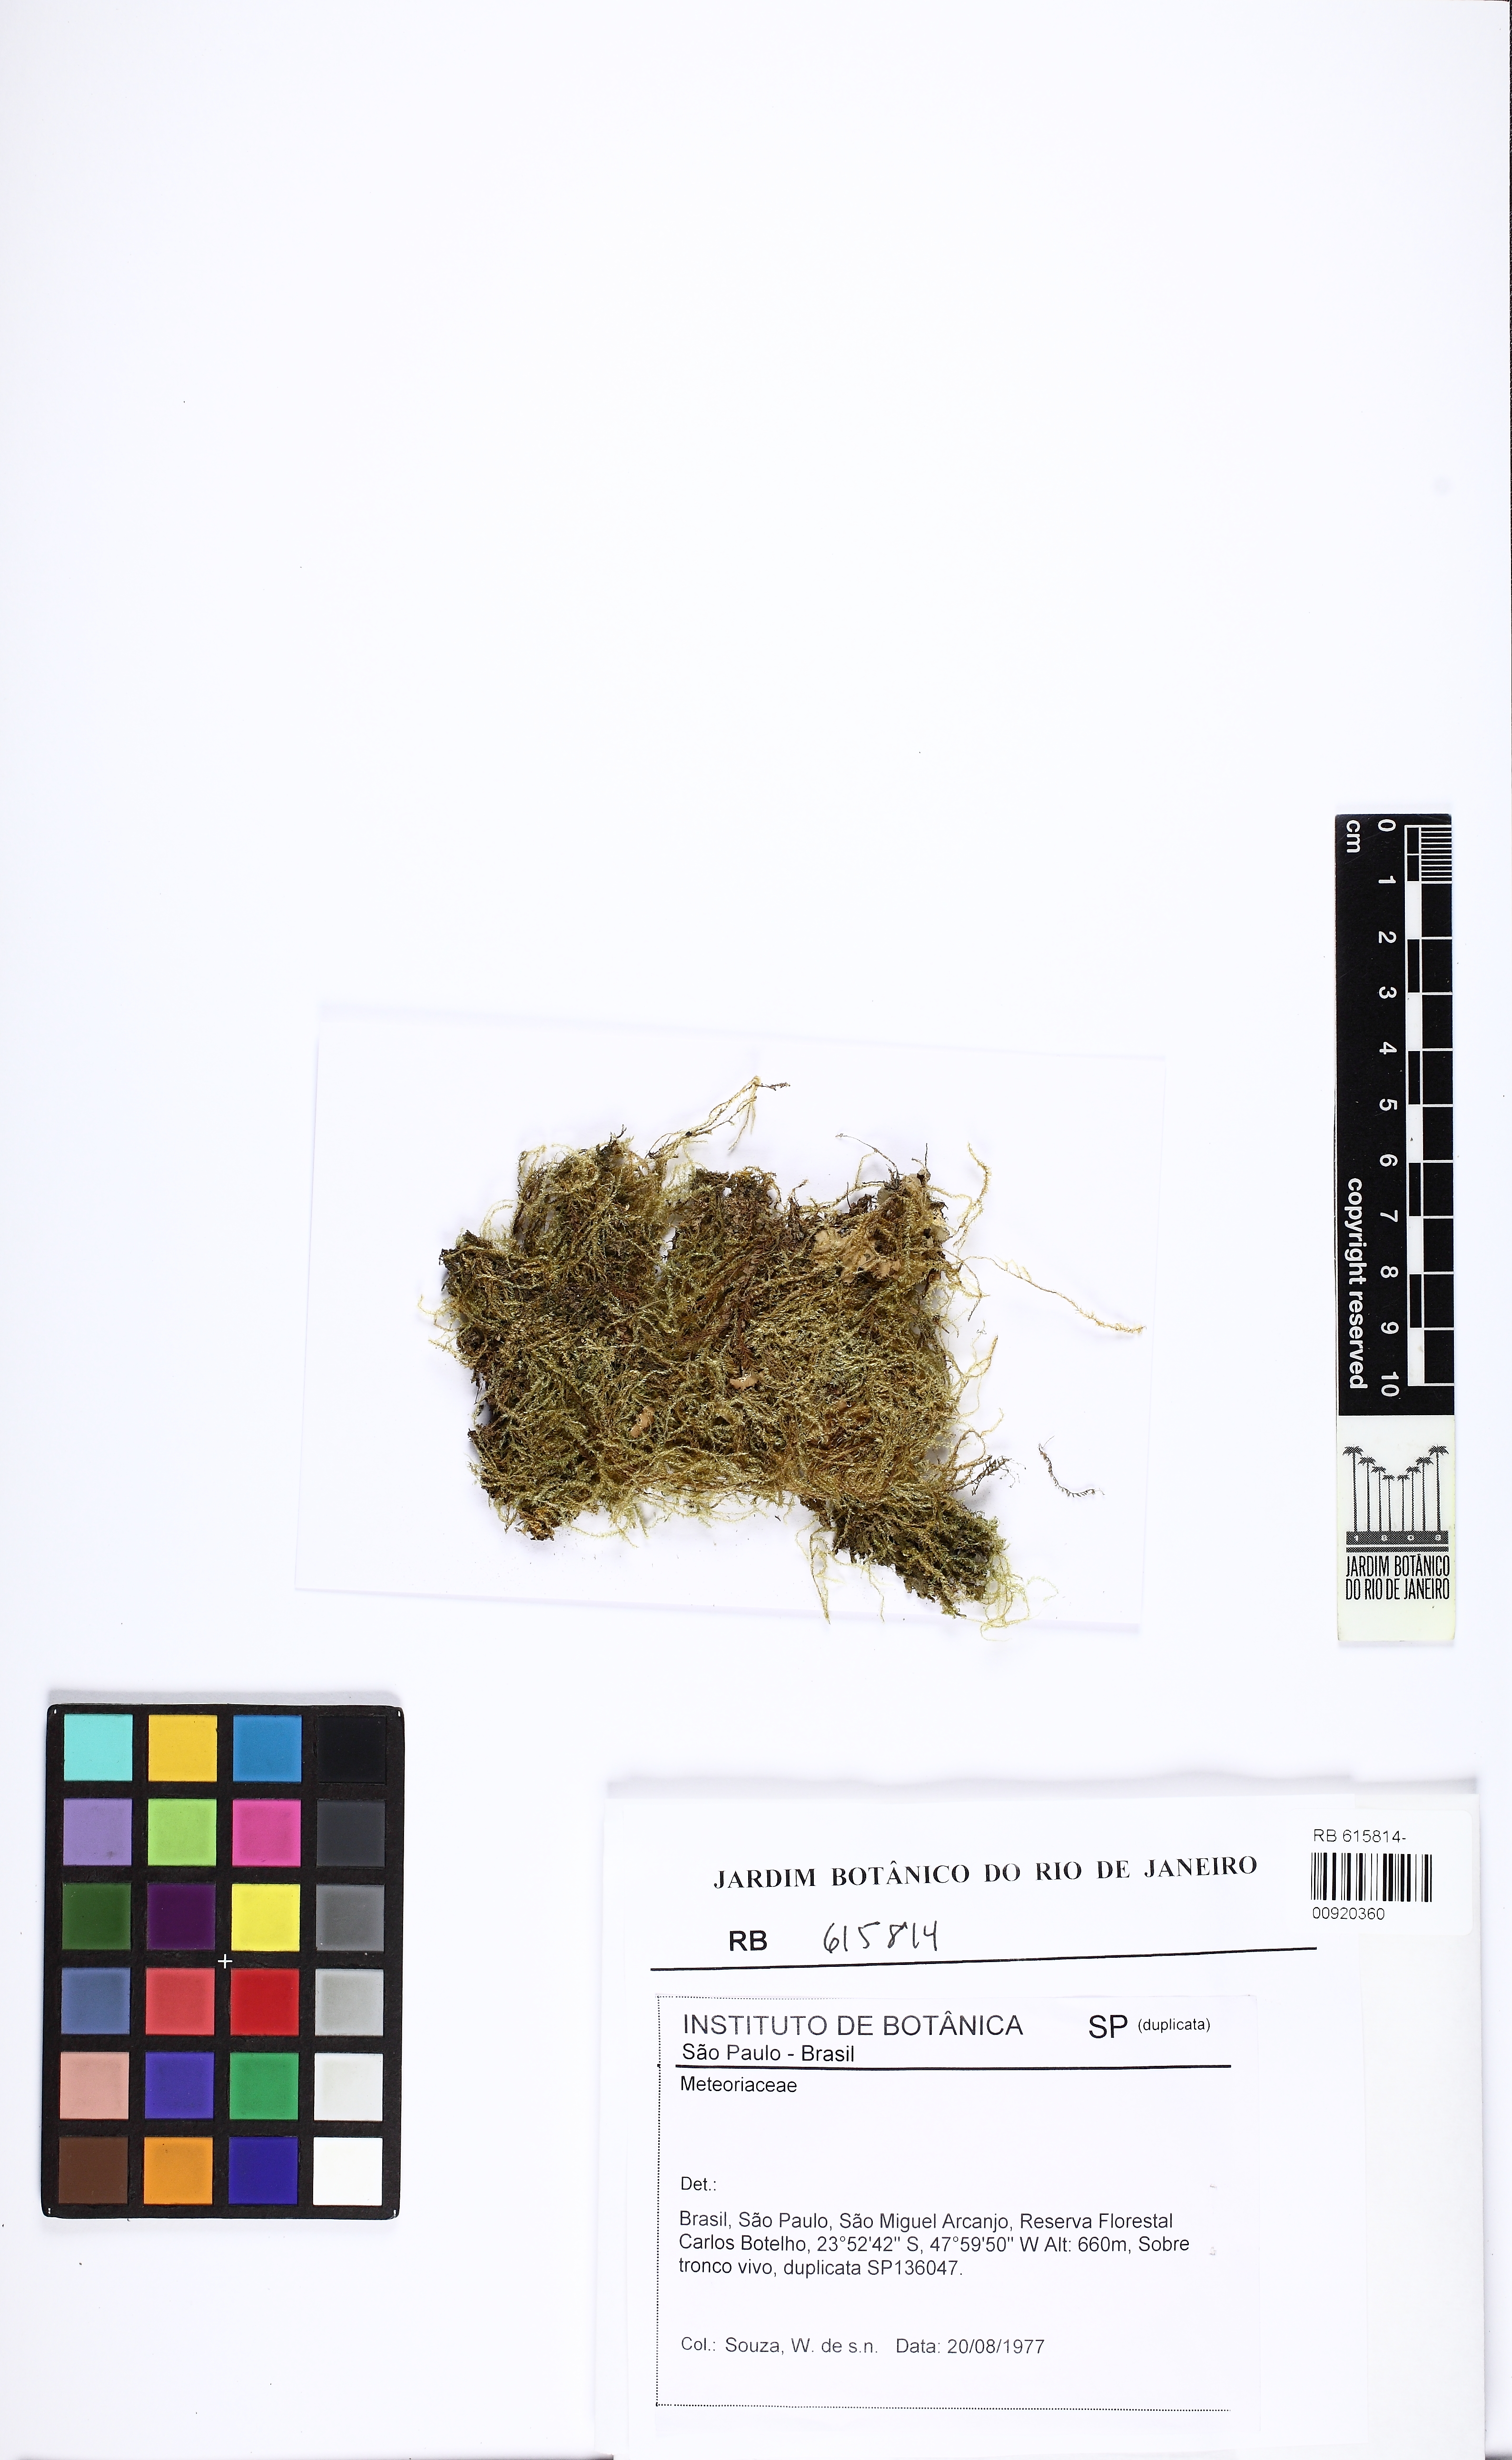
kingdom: Plantae
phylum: Bryophyta
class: Bryopsida
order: Hypnales
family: Meteoriaceae
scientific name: Meteoriaceae
